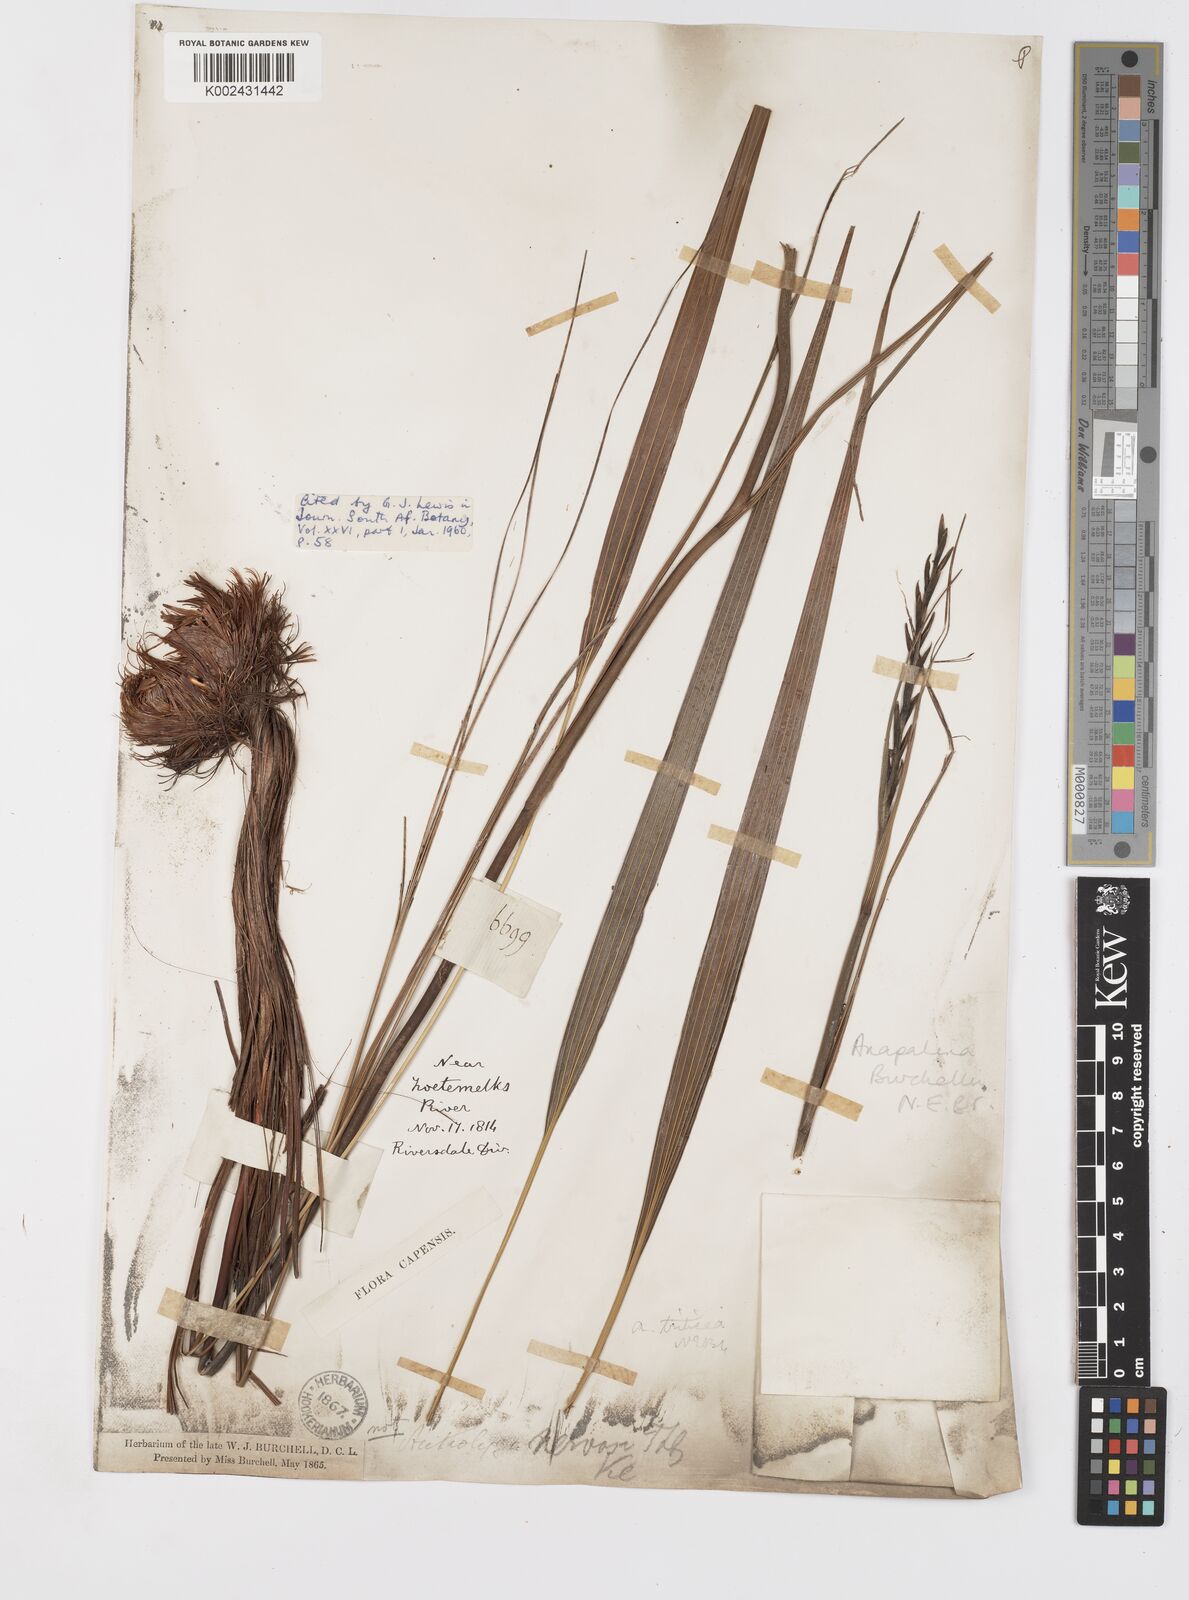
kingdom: Plantae
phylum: Tracheophyta
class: Liliopsida
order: Asparagales
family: Iridaceae
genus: Tritoniopsis
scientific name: Tritoniopsis triticea
